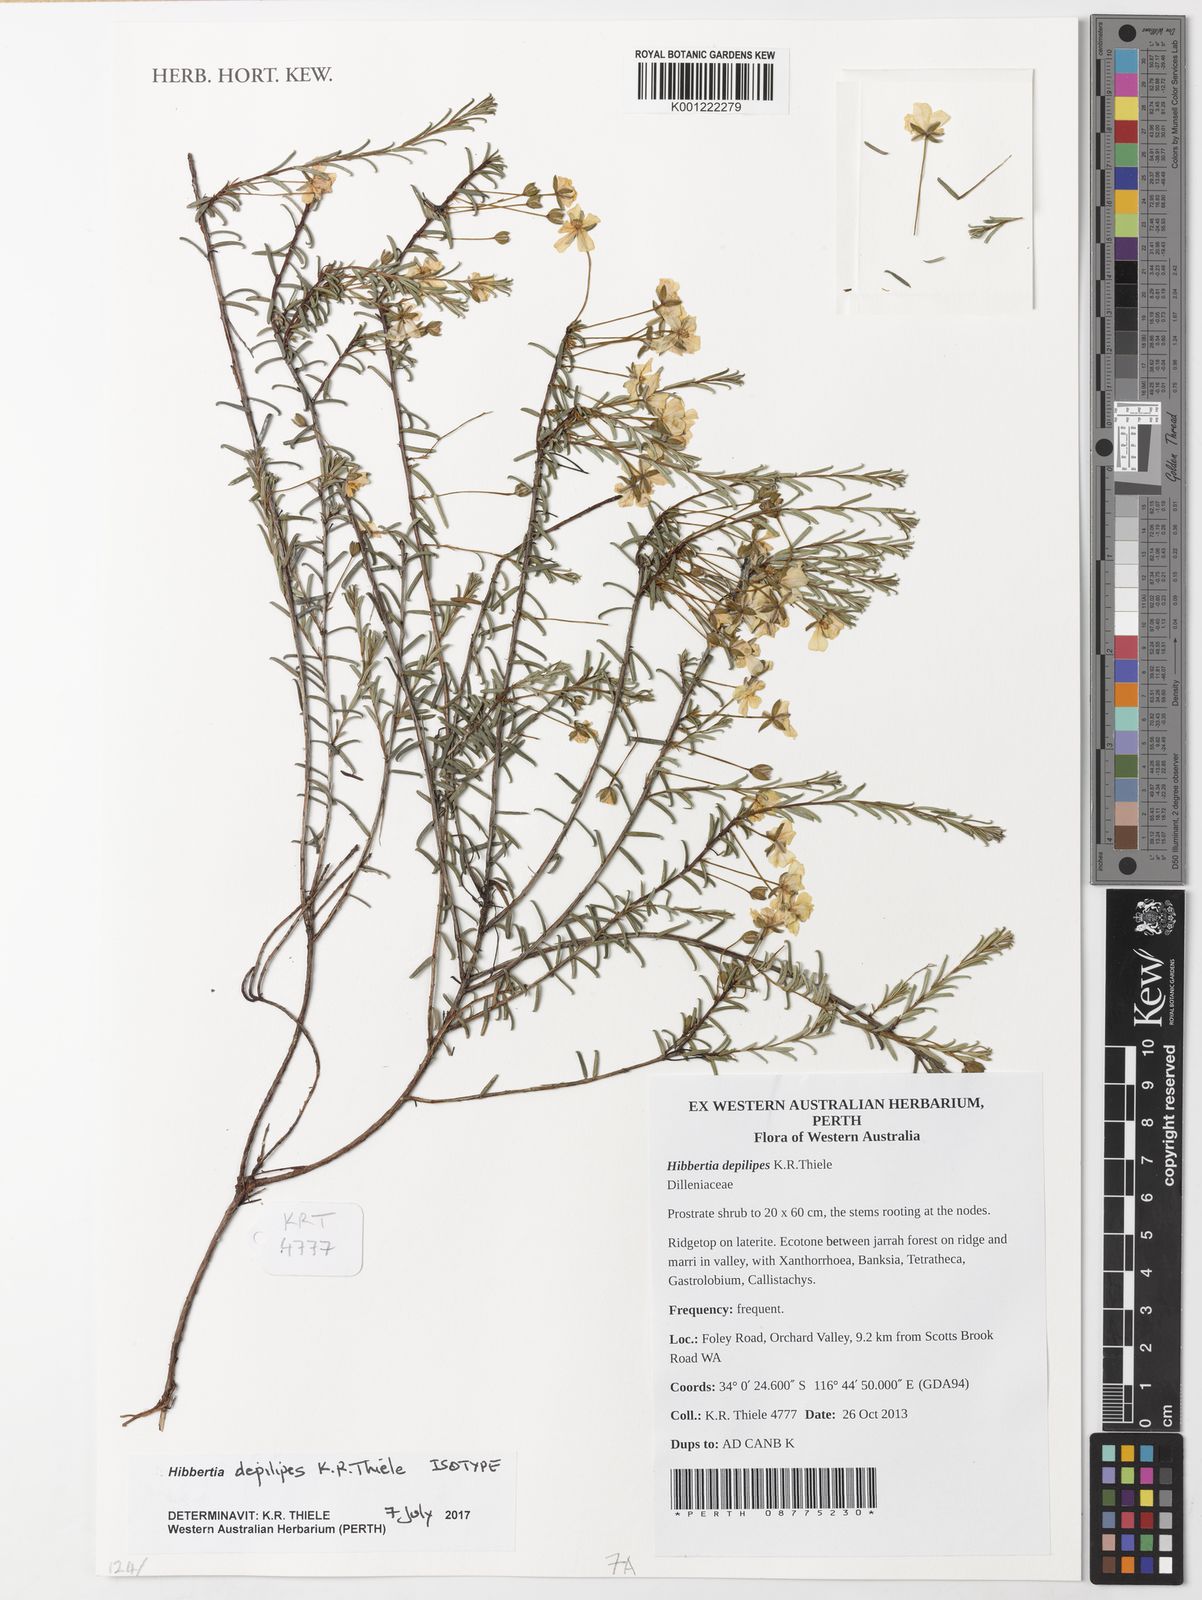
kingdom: Plantae
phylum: Tracheophyta
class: Magnoliopsida
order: Dilleniales
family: Dilleniaceae
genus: Hibbertia
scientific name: Hibbertia depilipes
